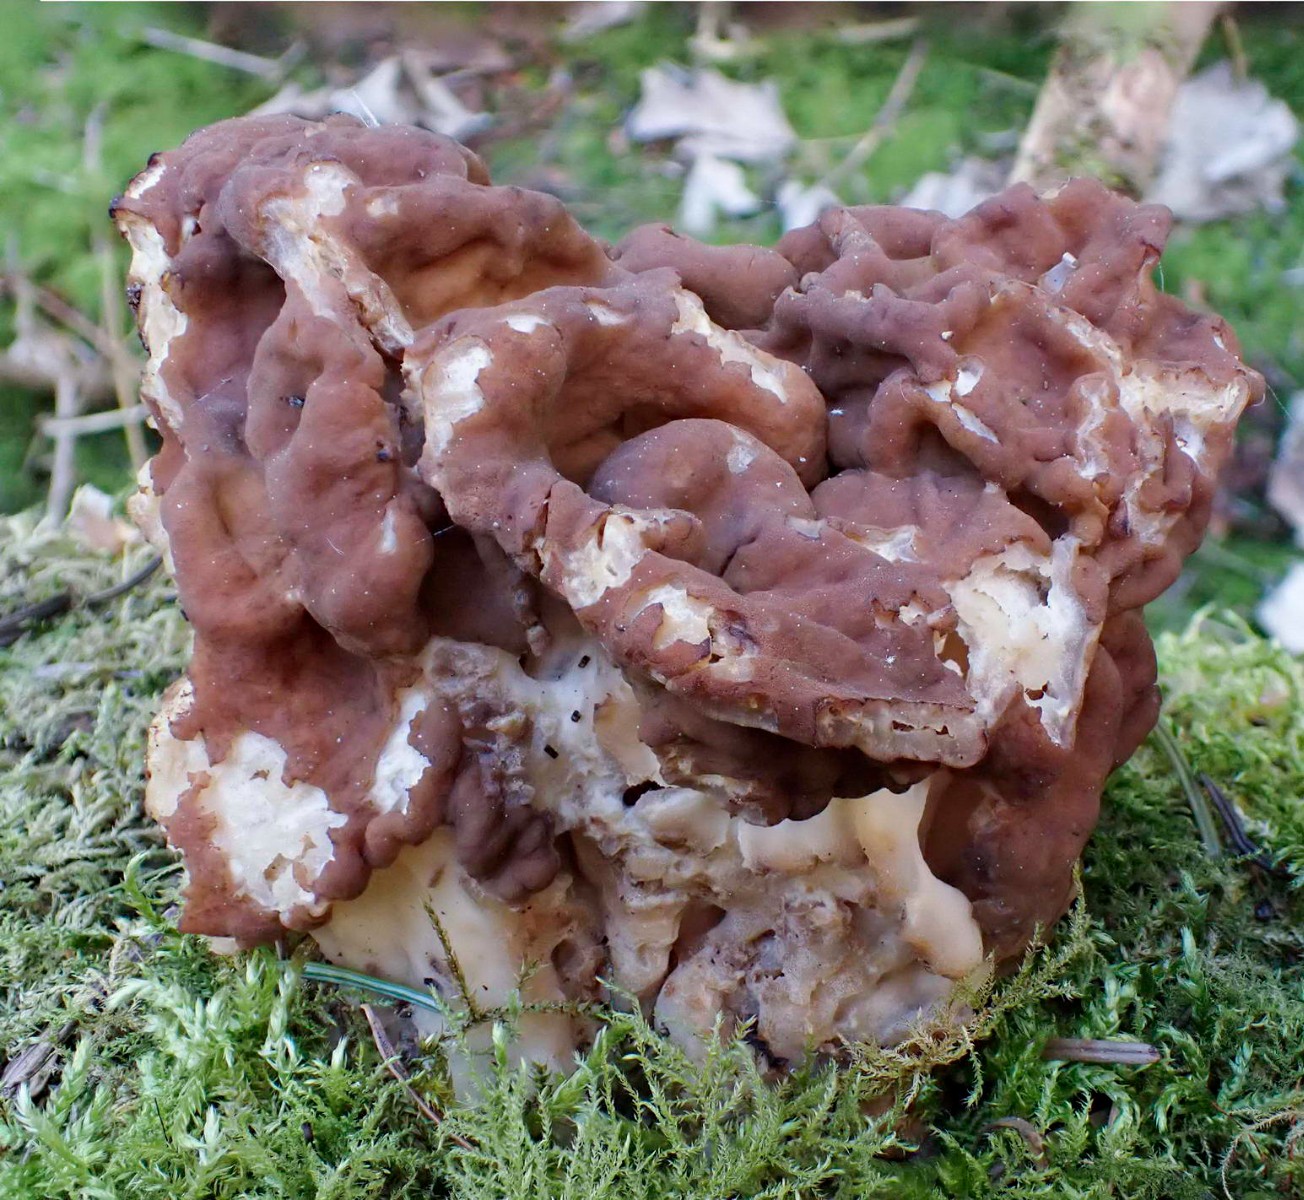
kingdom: Fungi
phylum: Ascomycota
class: Pezizomycetes
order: Pezizales
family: Discinaceae
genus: Gyromitra
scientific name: Gyromitra gigas
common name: kæmpe-stenmorkel
